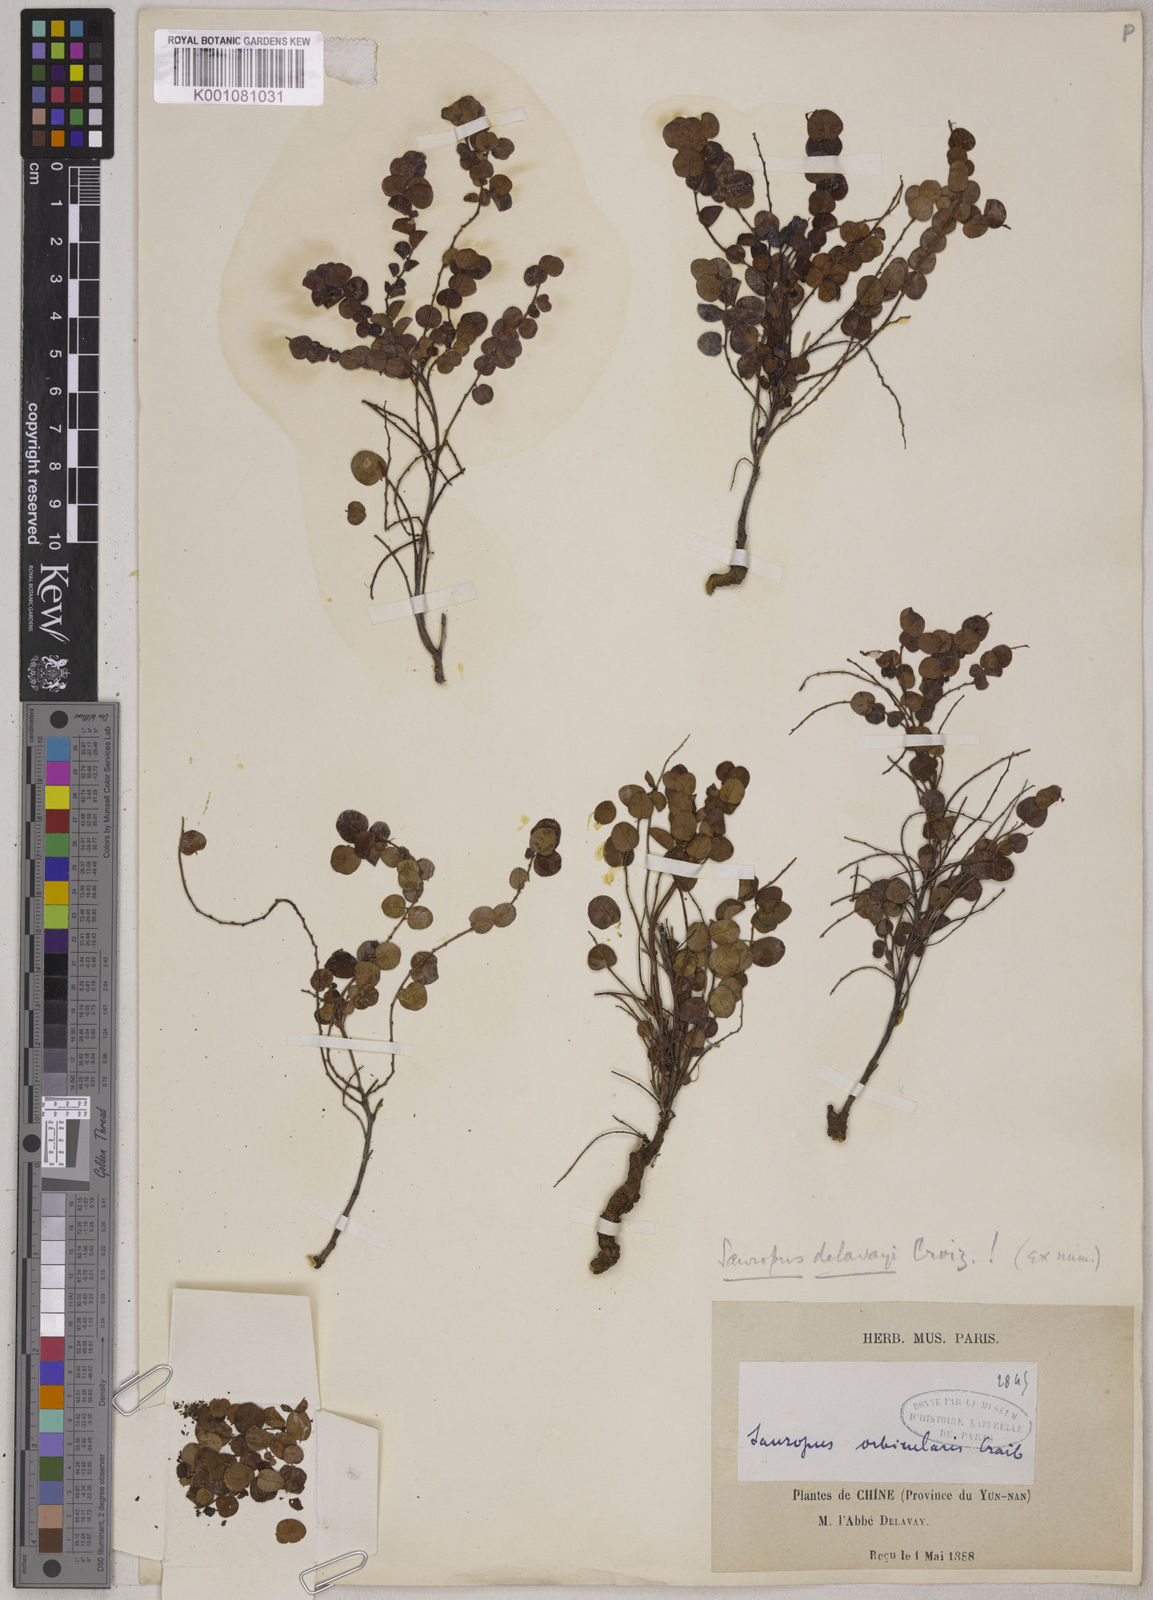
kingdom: Plantae
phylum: Tracheophyta
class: Magnoliopsida
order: Malpighiales
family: Phyllanthaceae
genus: Breynia
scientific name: Breynia delavayi
